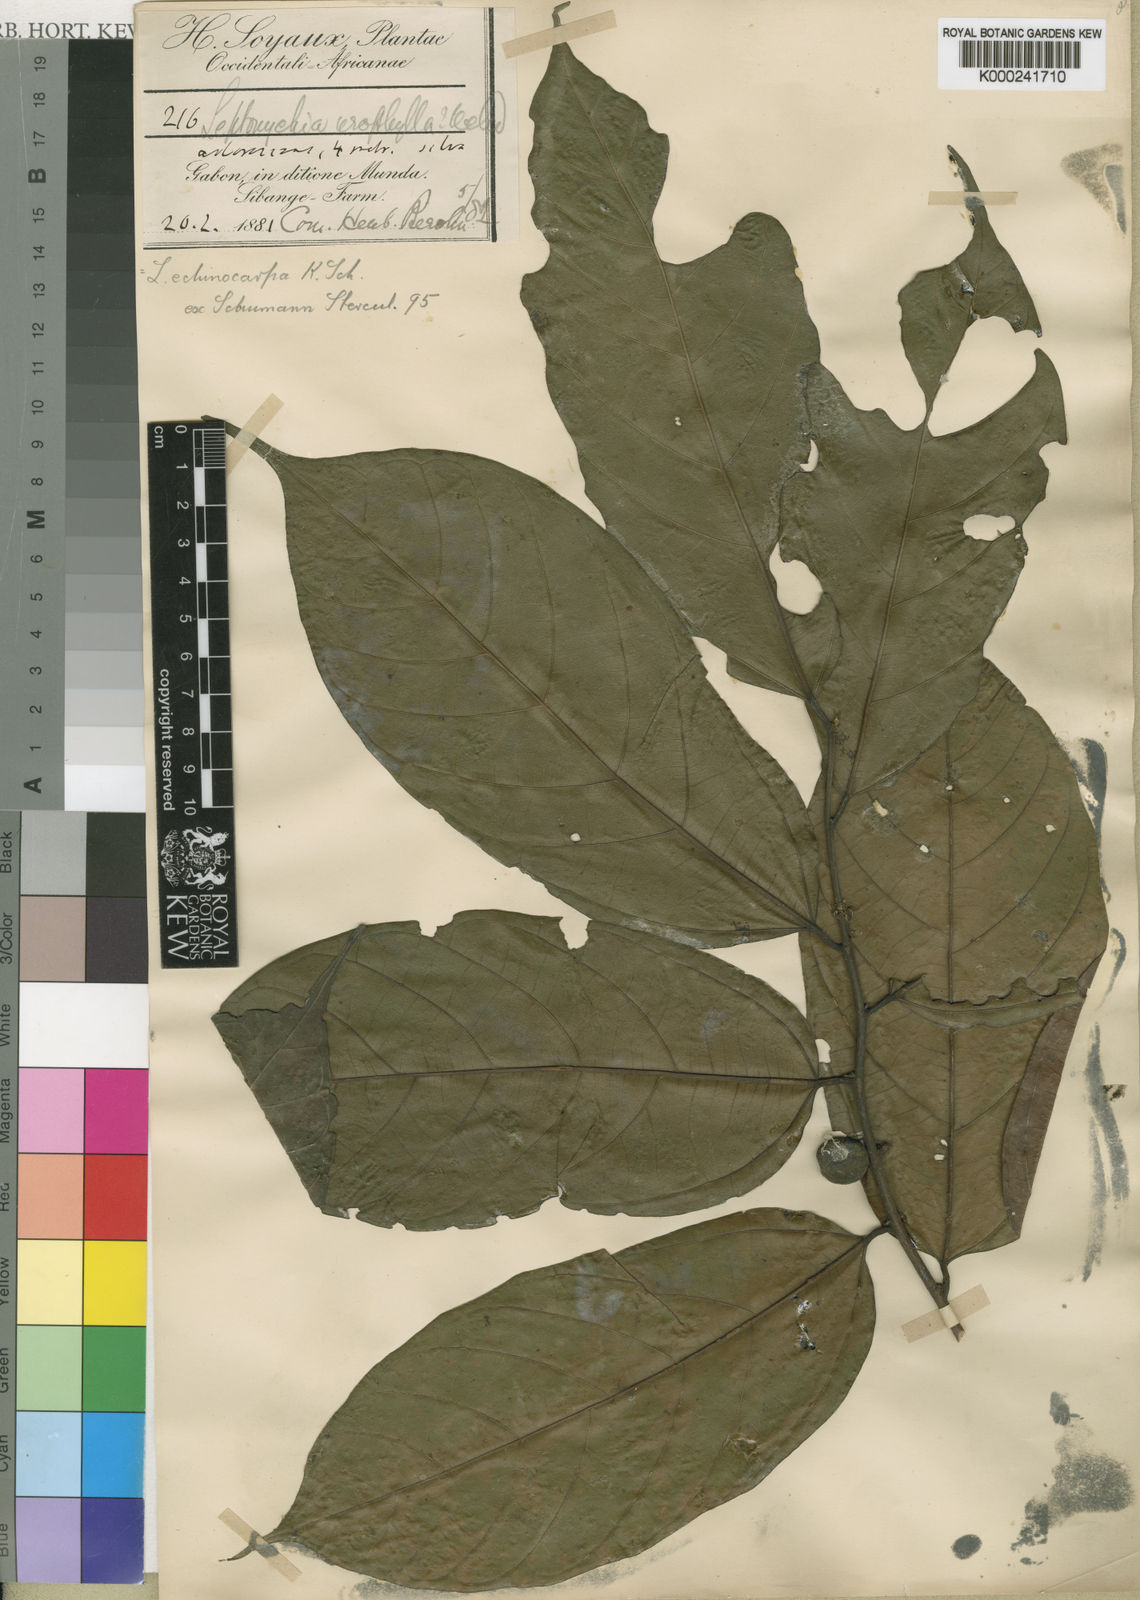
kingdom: Plantae
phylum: Tracheophyta
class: Magnoliopsida
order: Malvales
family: Malvaceae
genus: Leptonychia
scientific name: Leptonychia echinocarpa
